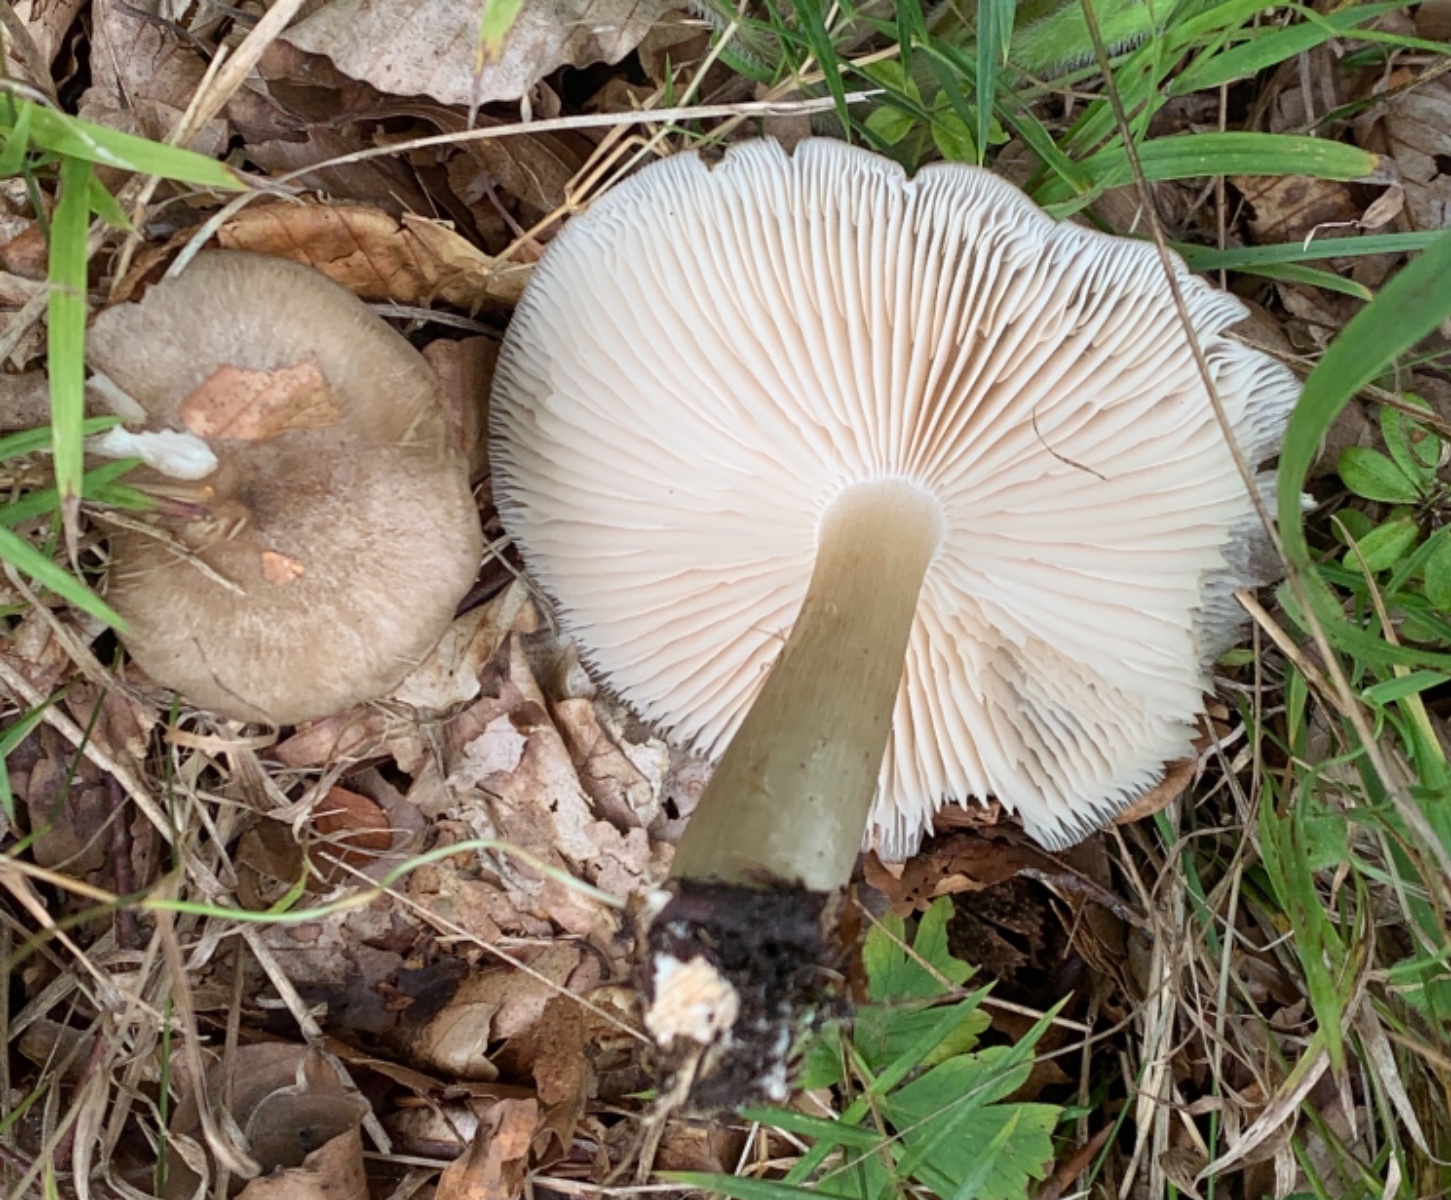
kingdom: Fungi
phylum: Basidiomycota
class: Agaricomycetes
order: Agaricales
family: Tricholomataceae
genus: Megacollybia
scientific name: Megacollybia platyphylla
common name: bredbladet væbnerhat
